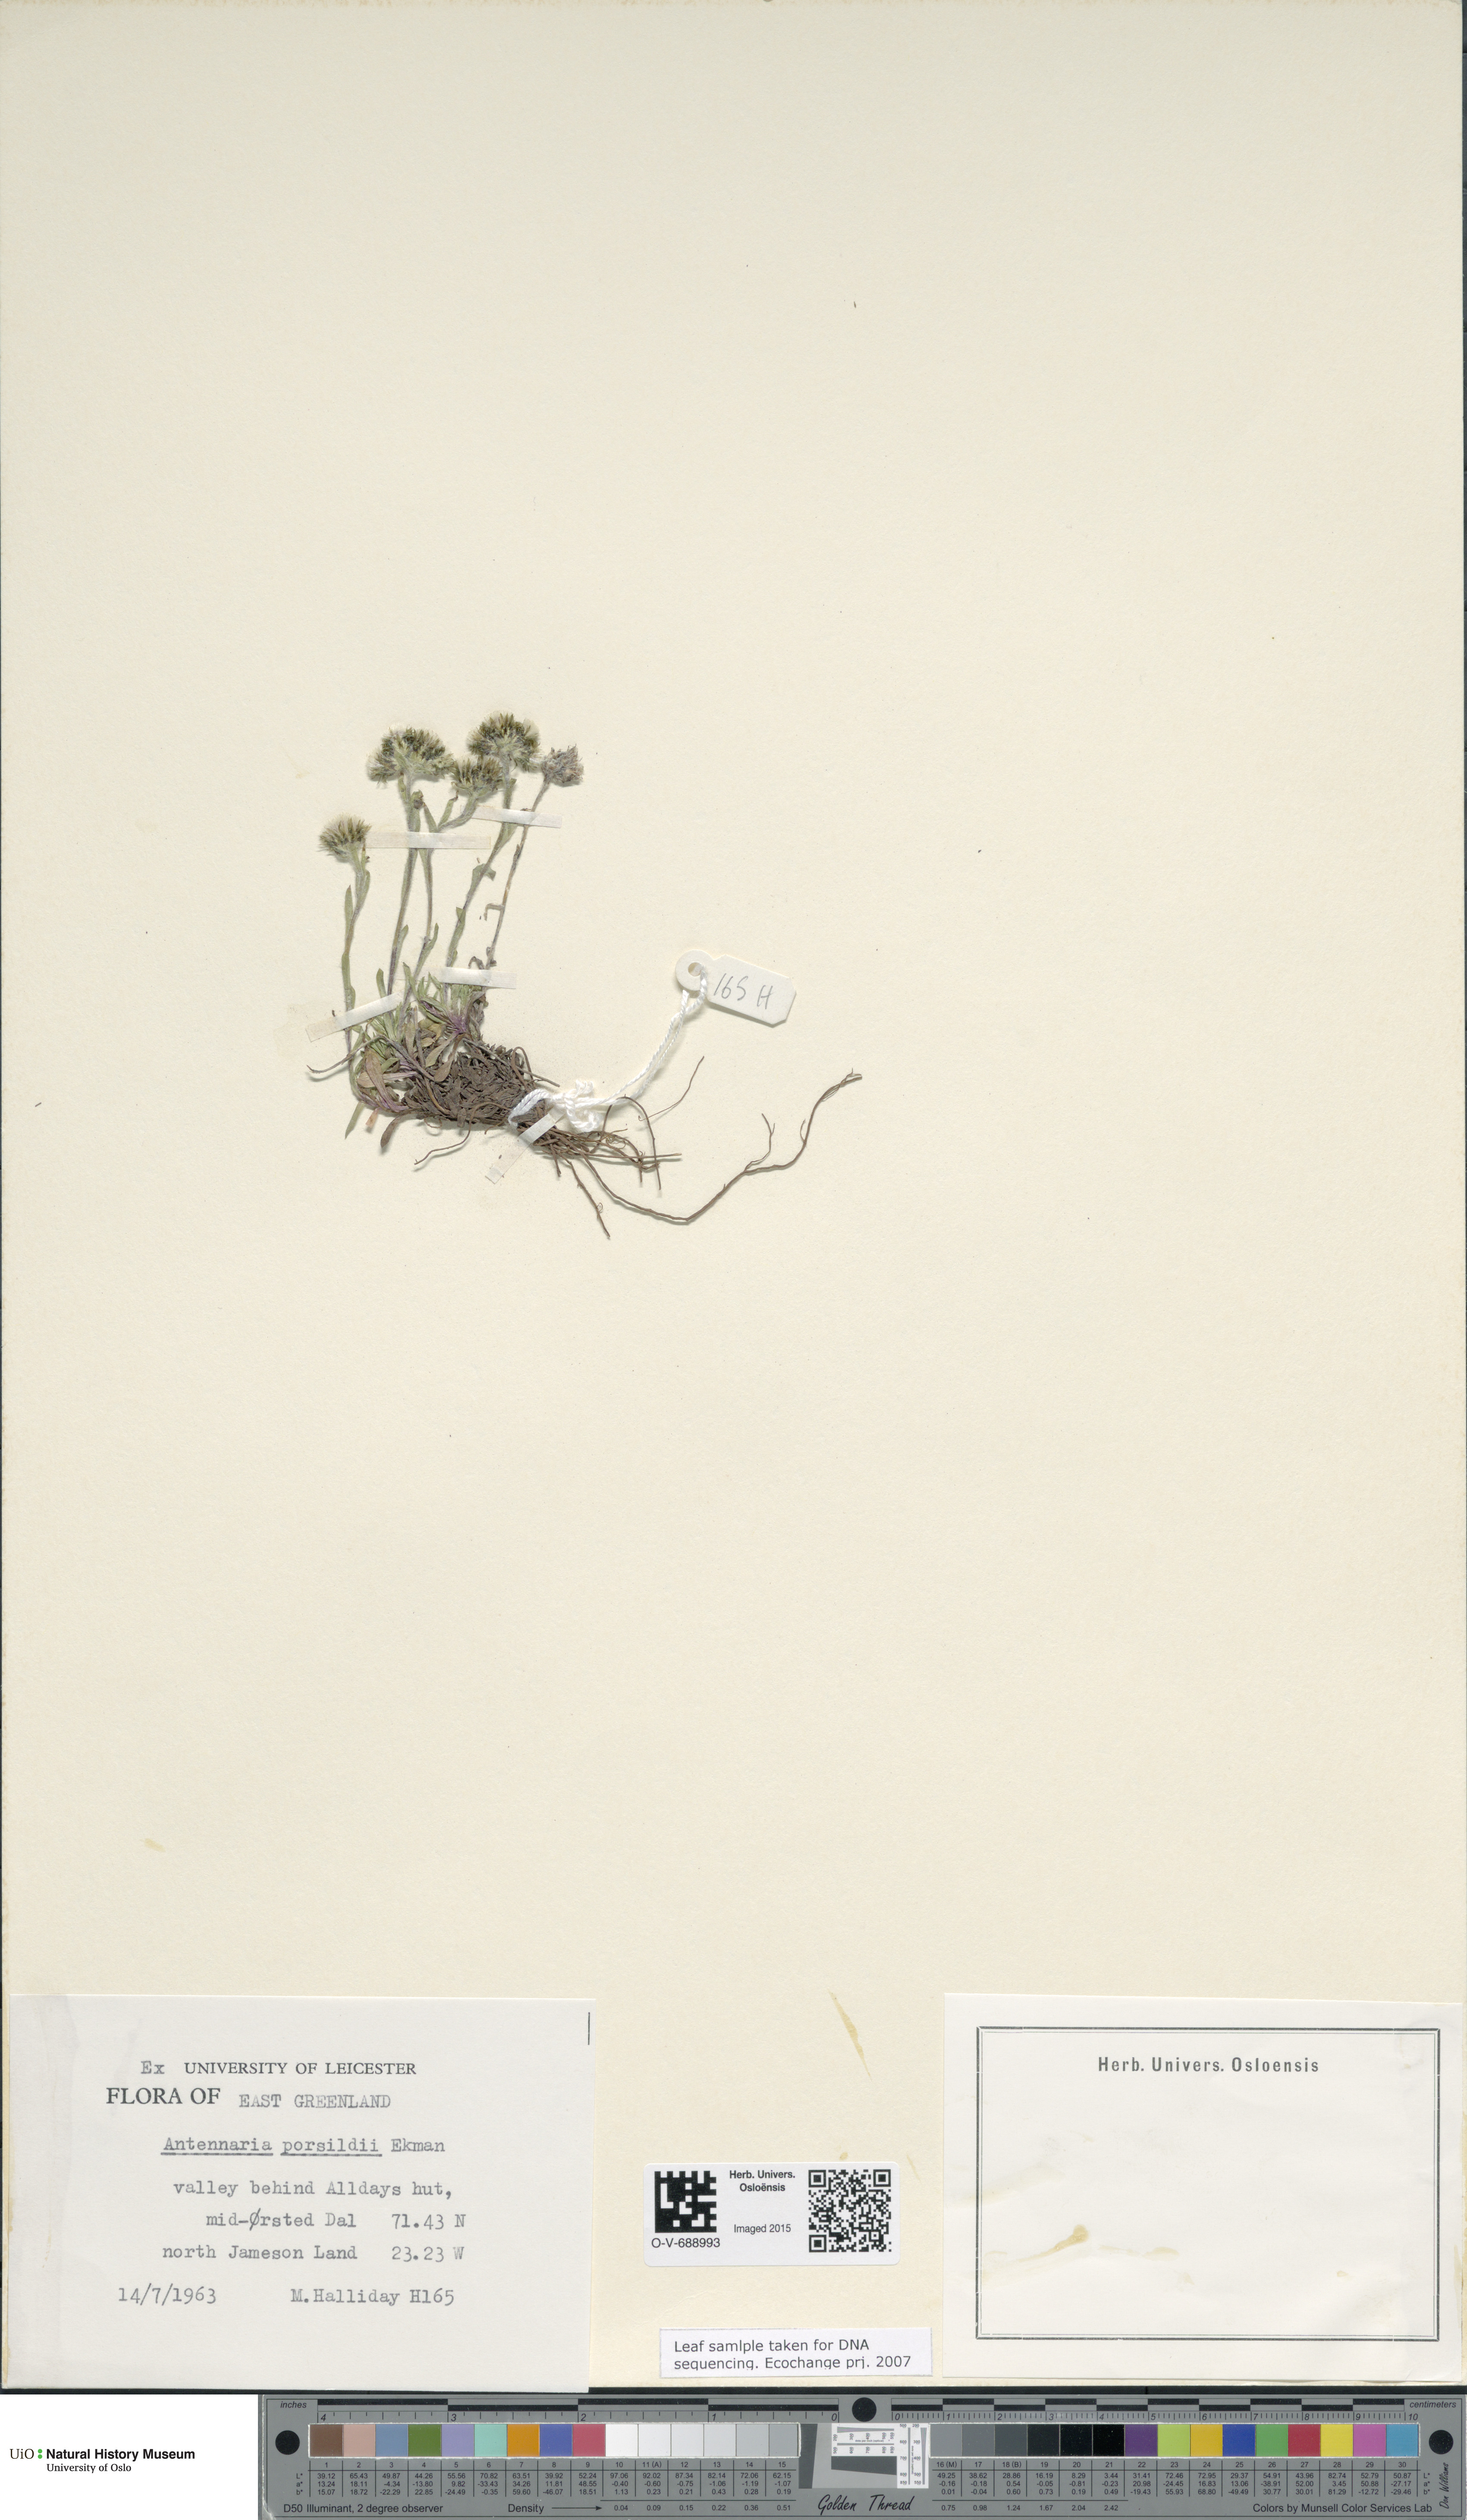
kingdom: Plantae
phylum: Tracheophyta
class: Magnoliopsida
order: Asterales
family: Asteraceae
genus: Antennaria
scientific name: Antennaria porsildii
